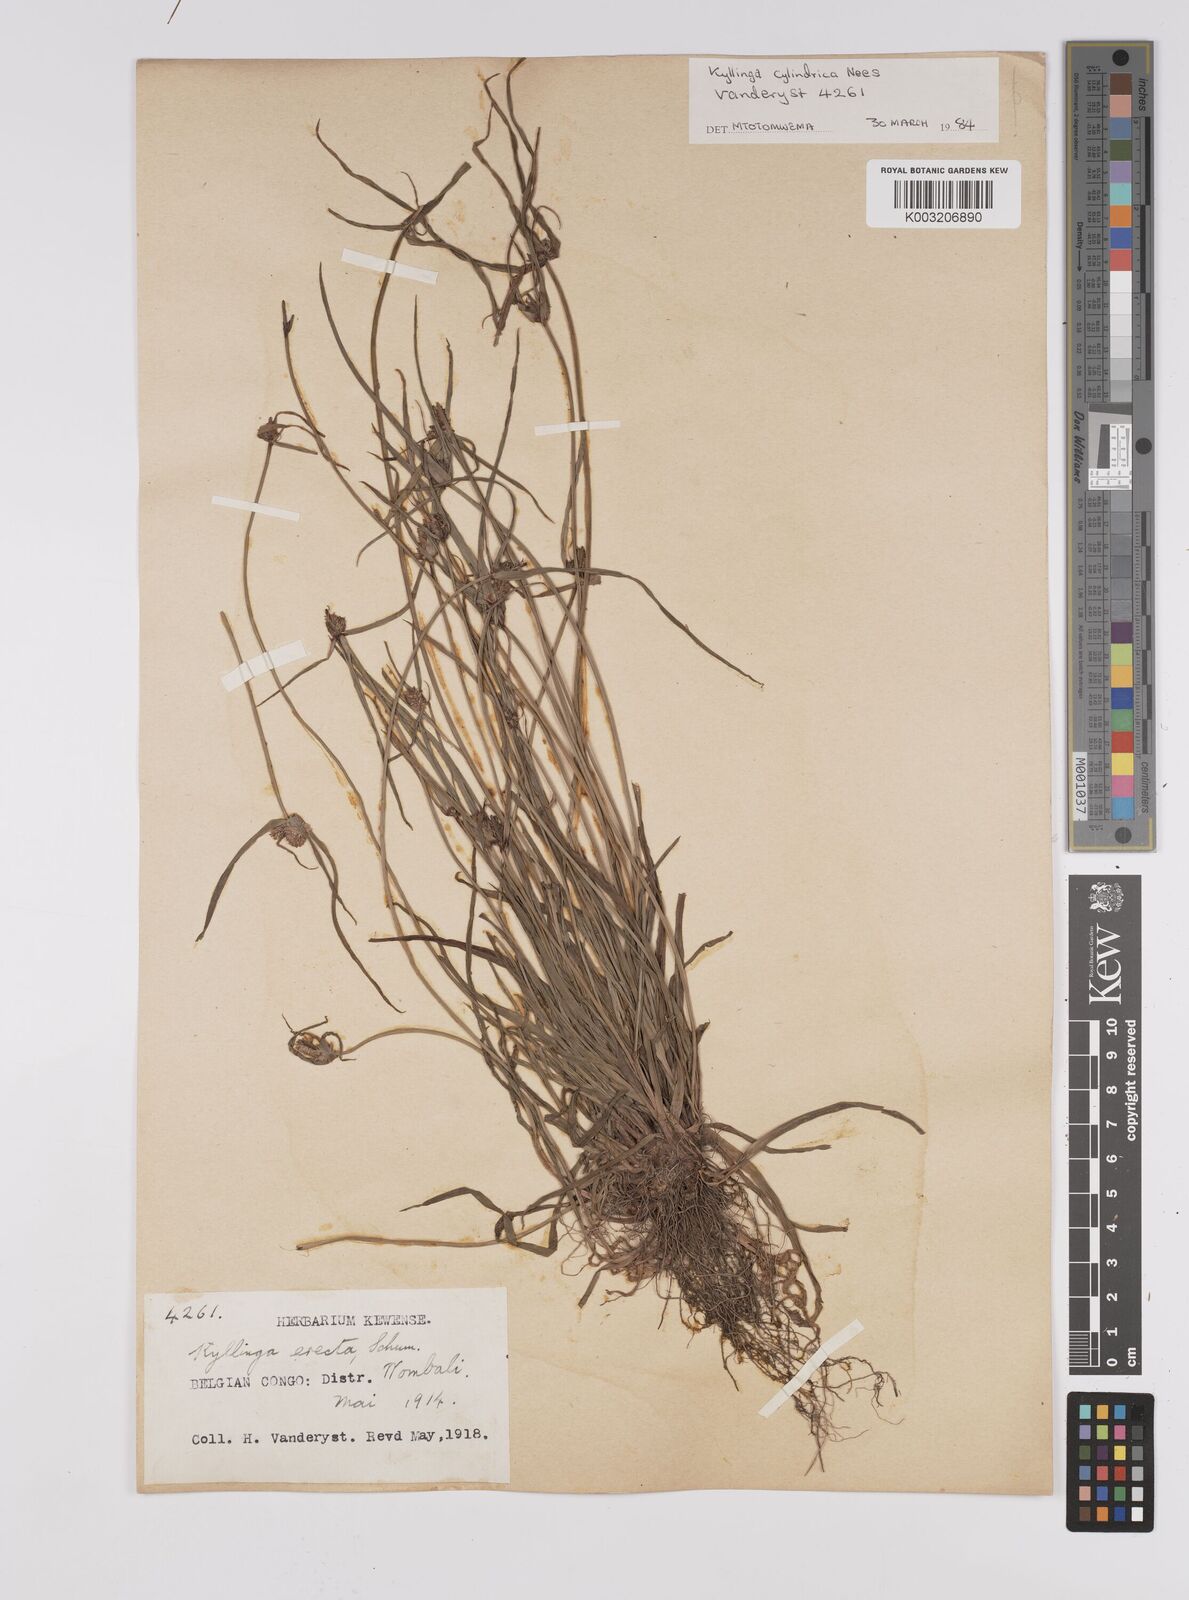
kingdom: Plantae
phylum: Tracheophyta
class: Liliopsida
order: Poales
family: Cyperaceae
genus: Cyperus
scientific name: Cyperus odoratus
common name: Fragrant flatsedge
